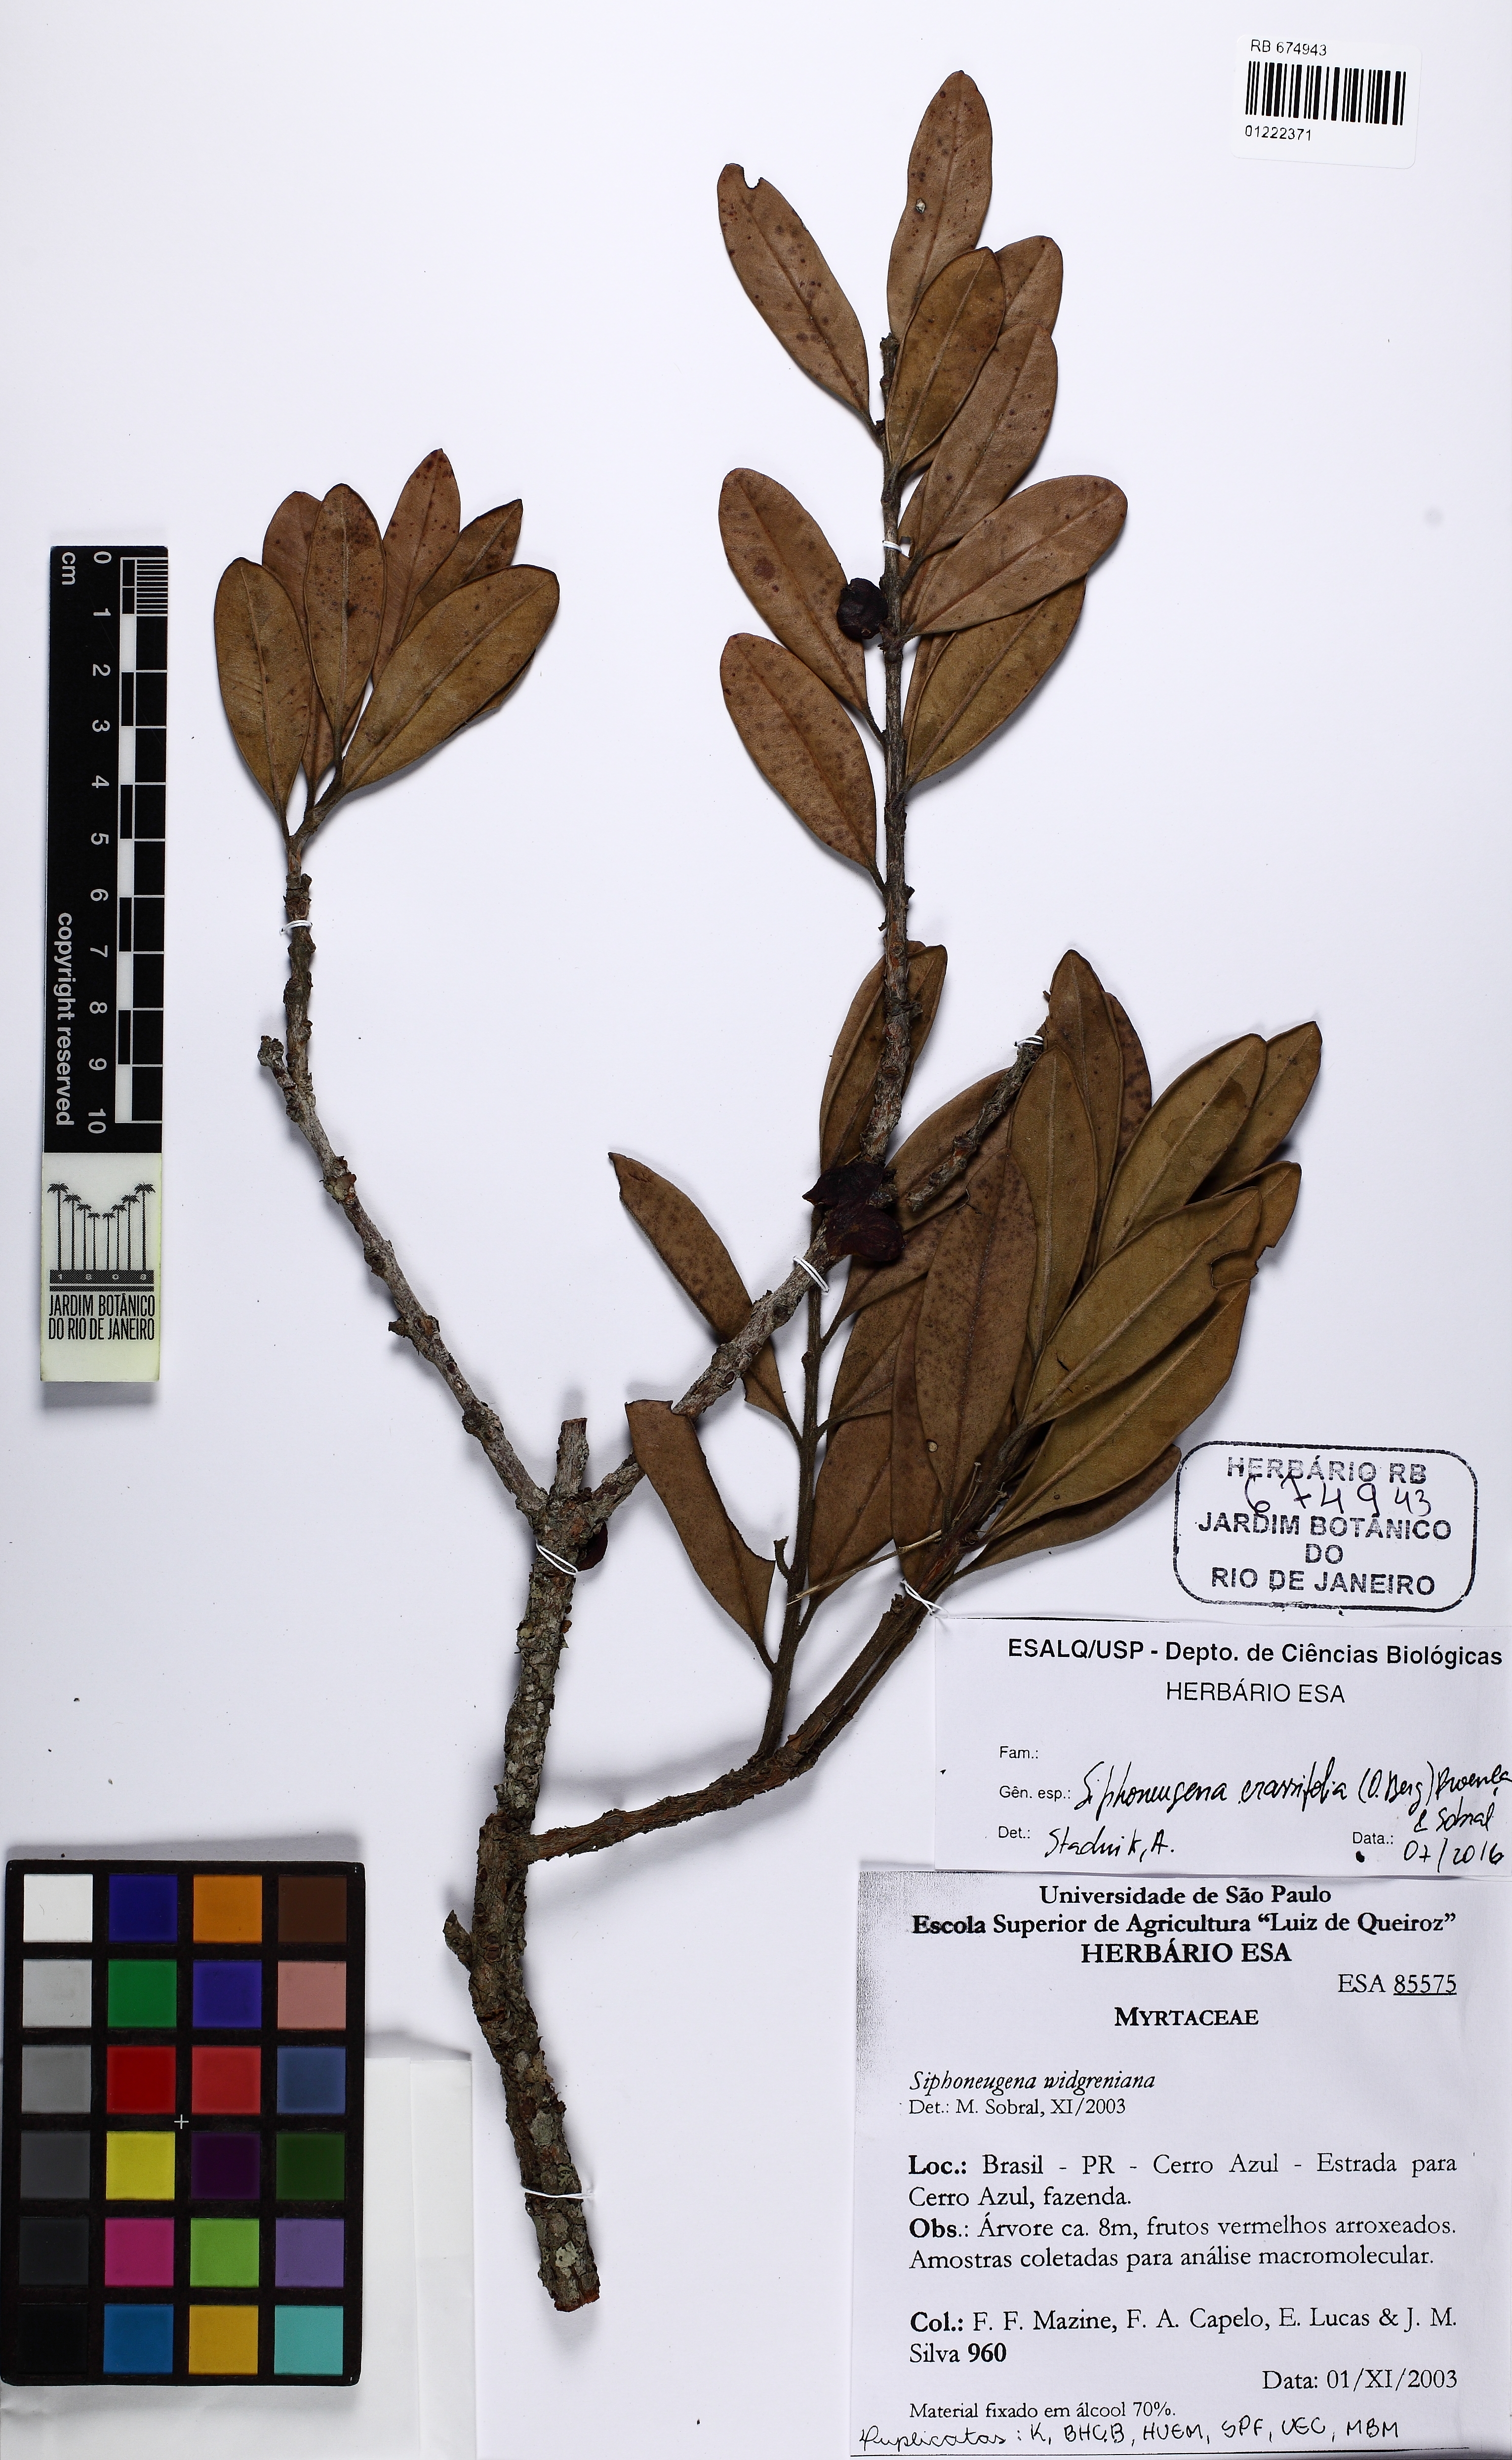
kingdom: Plantae
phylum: Tracheophyta
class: Magnoliopsida
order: Myrtales
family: Myrtaceae
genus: Siphoneugena
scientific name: Siphoneugena crassifolia
